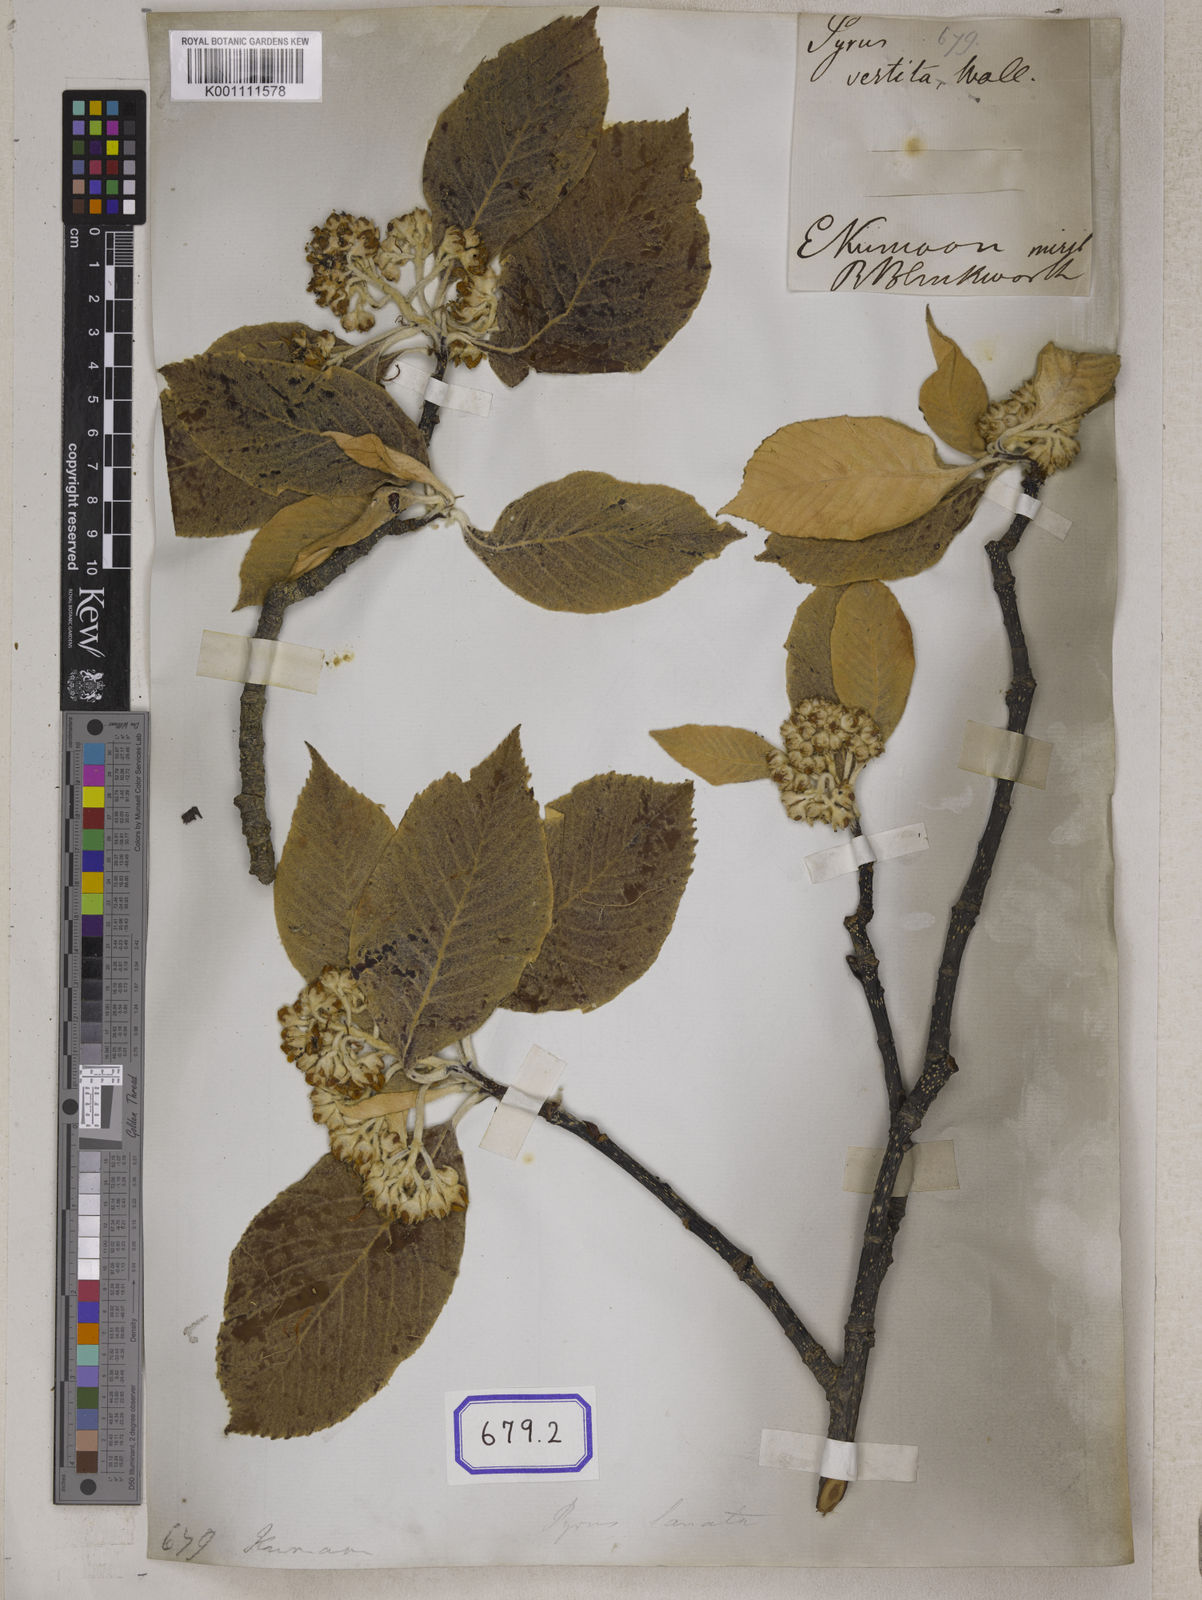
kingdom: Plantae
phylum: Tracheophyta
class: Magnoliopsida
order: Rosales
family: Rosaceae
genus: Pyrus
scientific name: Pyrus
